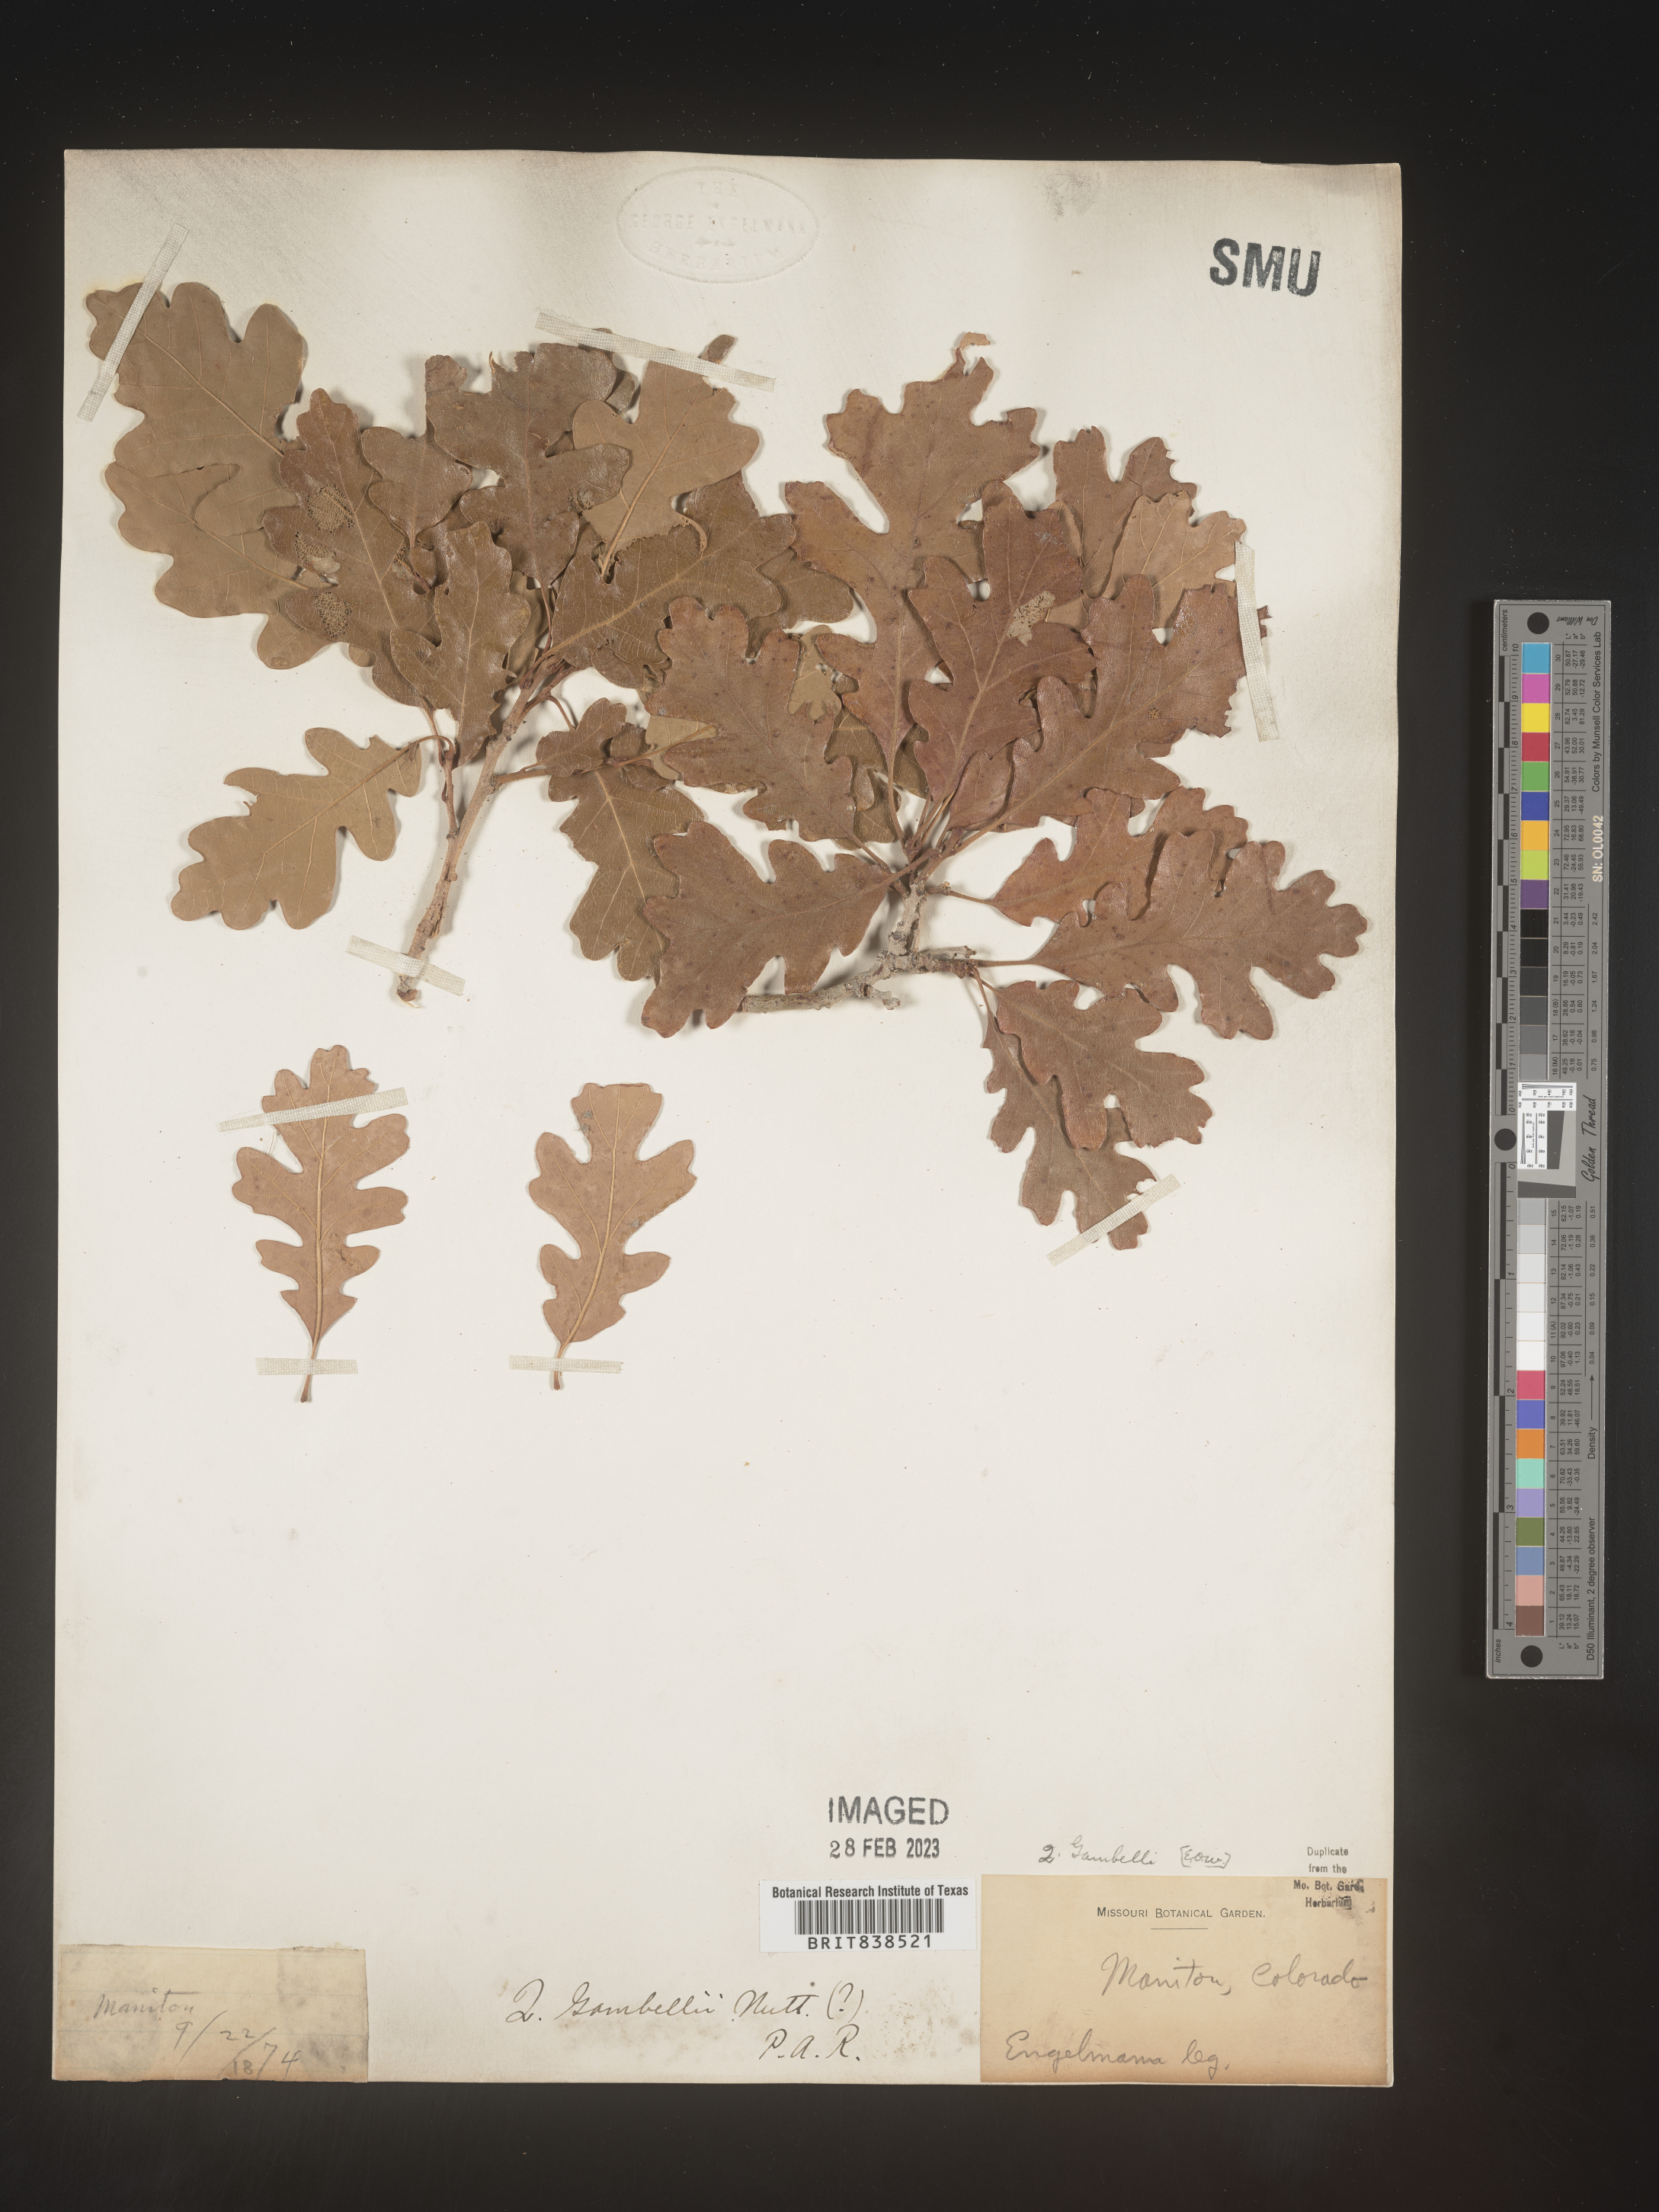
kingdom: Plantae
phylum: Tracheophyta
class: Magnoliopsida
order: Fagales
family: Fagaceae
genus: Quercus
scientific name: Quercus gambelii
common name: Gambel oak
